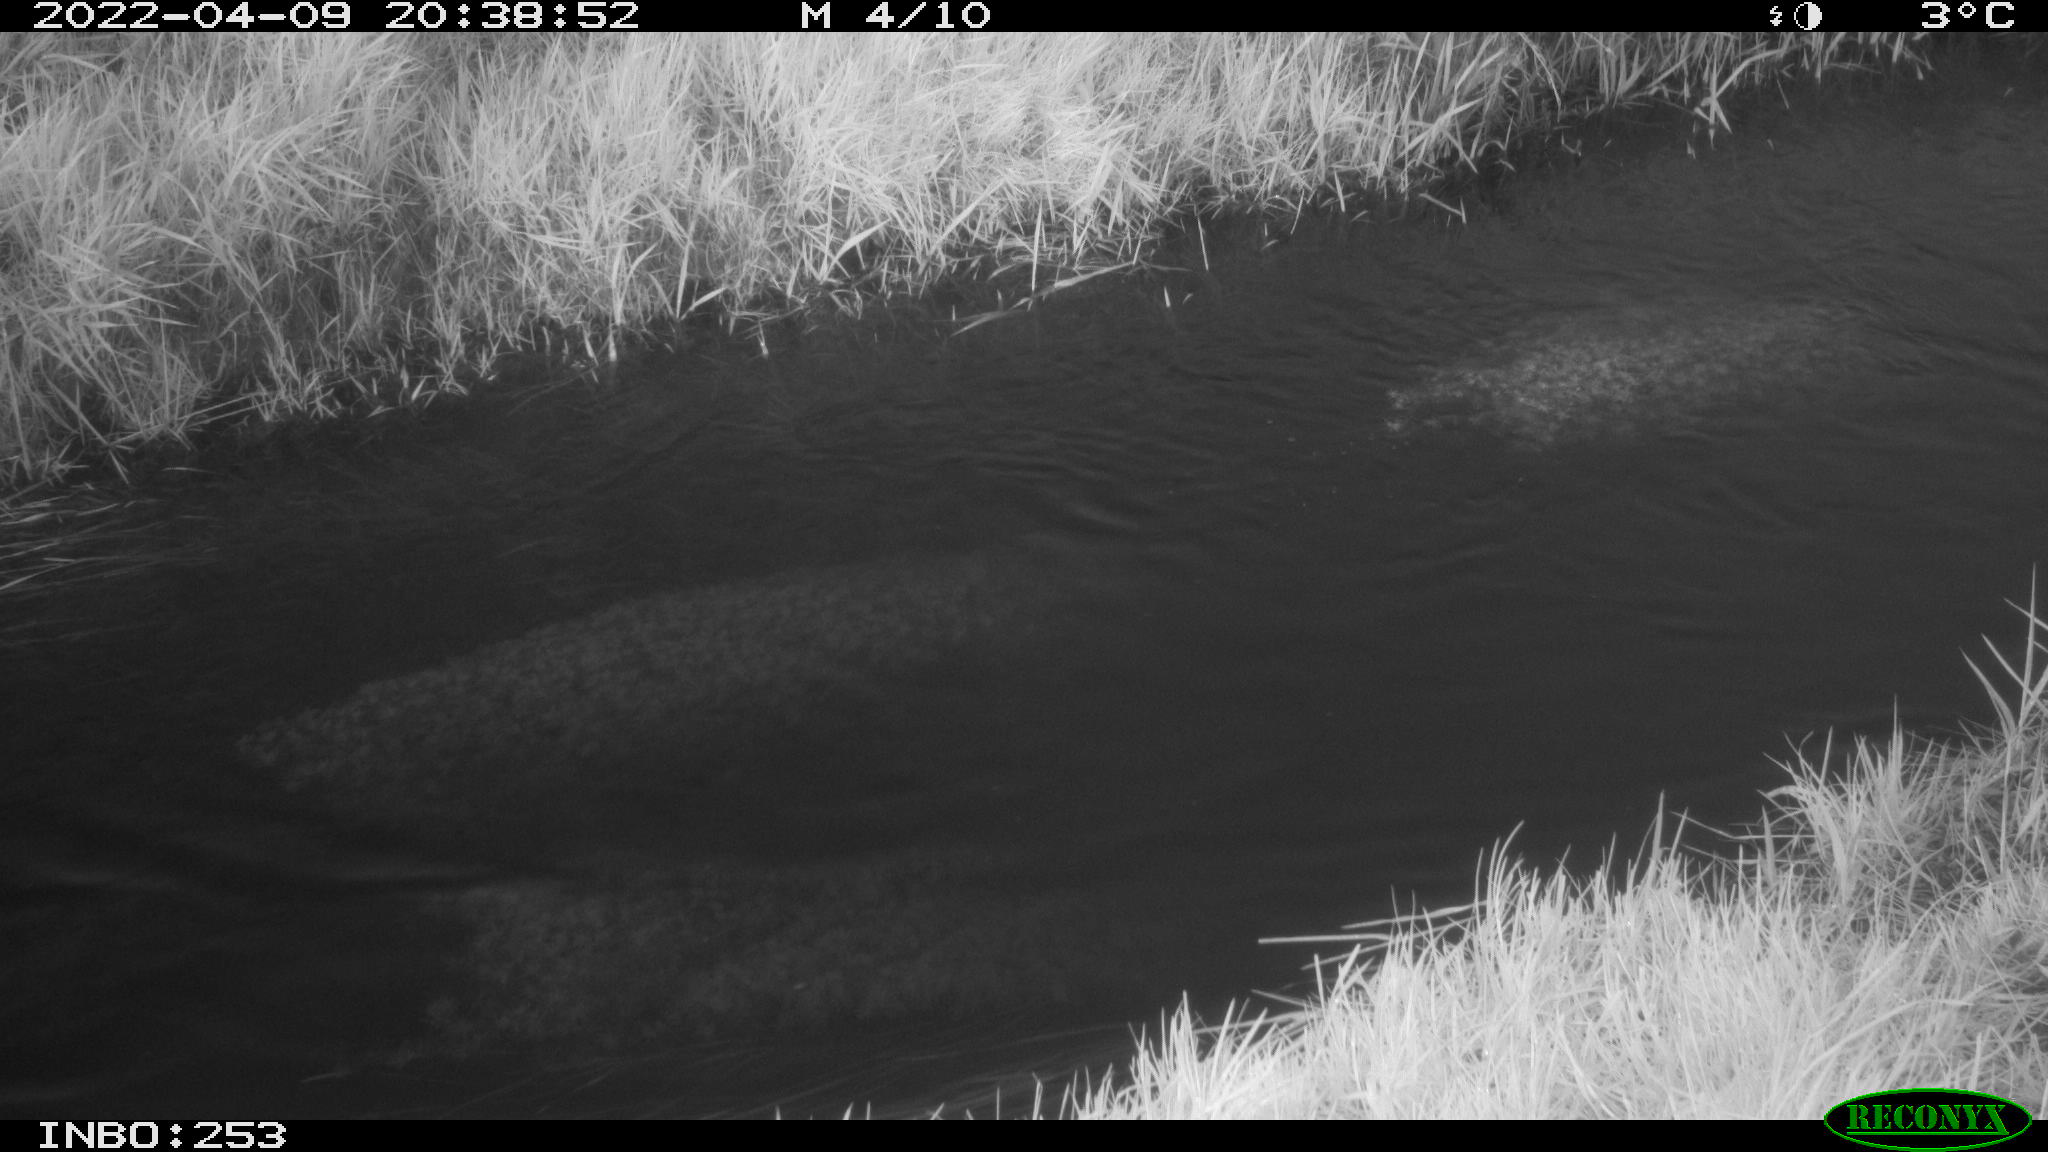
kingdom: Animalia
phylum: Chordata
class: Aves
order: Anseriformes
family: Anatidae
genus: Anas
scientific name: Anas platyrhynchos
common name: Mallard
